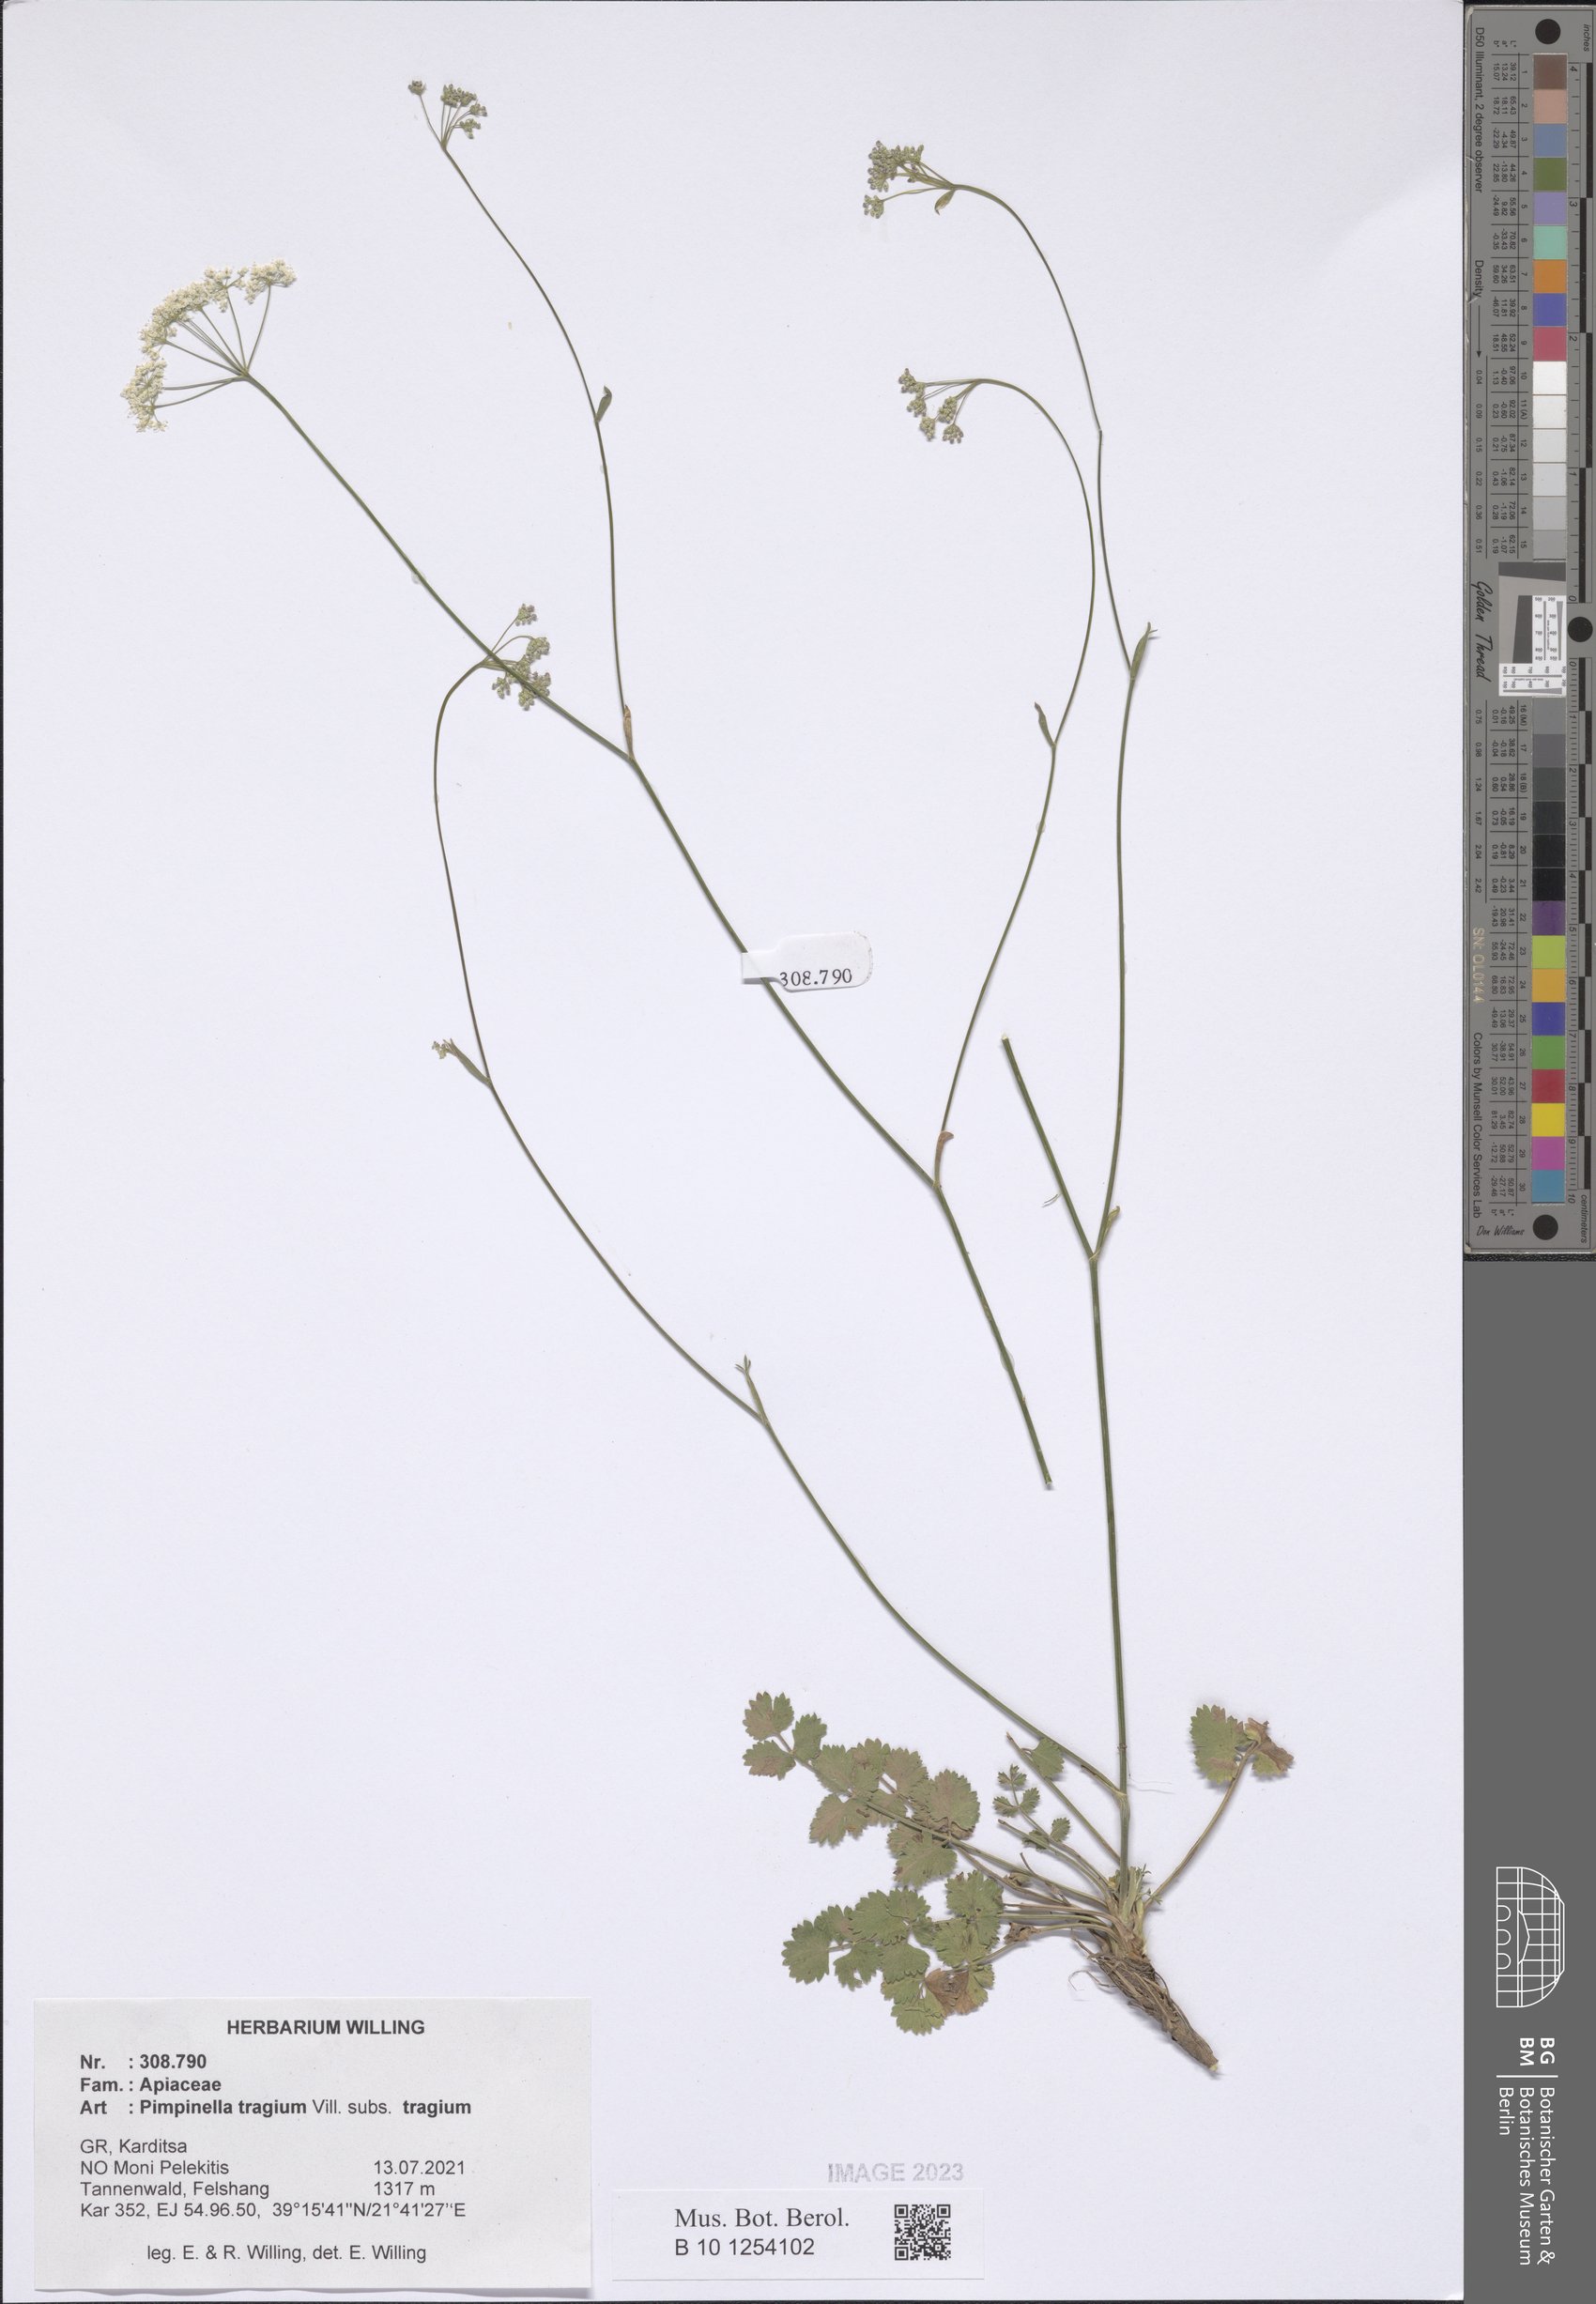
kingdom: Plantae
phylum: Tracheophyta
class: Magnoliopsida
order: Apiales
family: Apiaceae
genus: Pimpinella
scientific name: Pimpinella tragium
